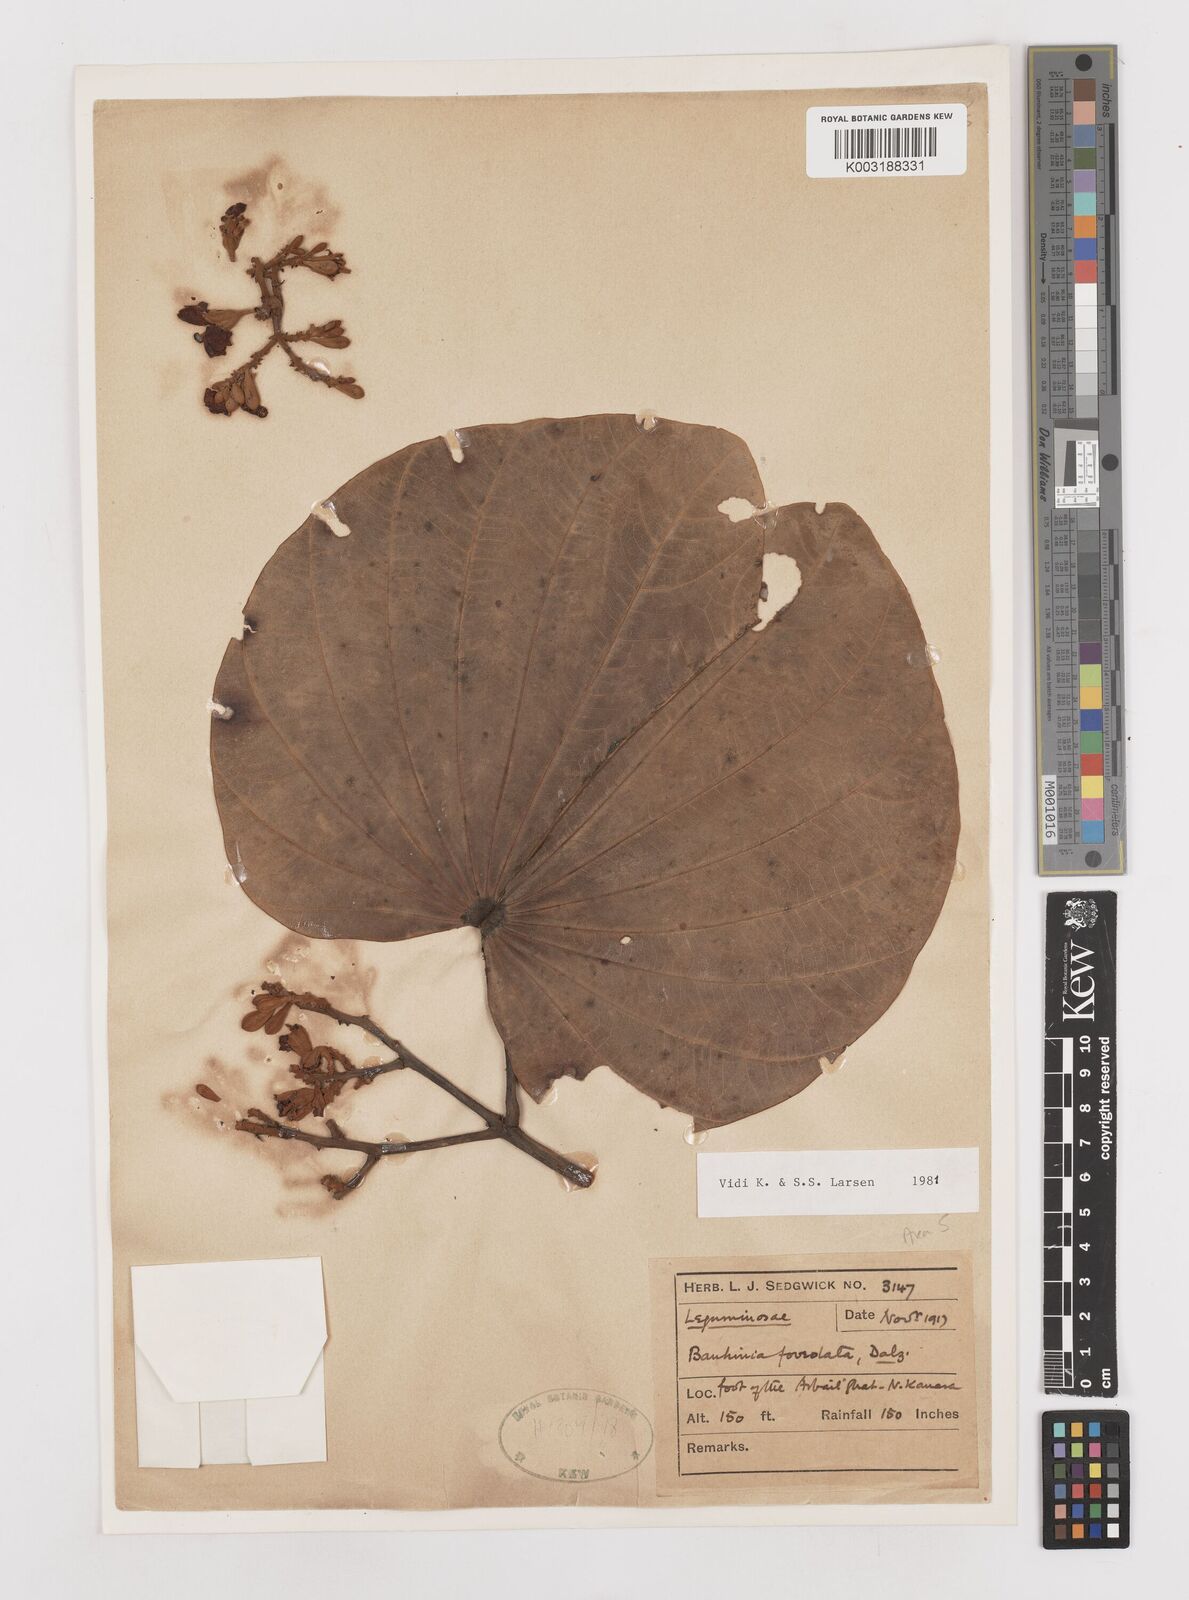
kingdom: Plantae
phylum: Tracheophyta
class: Magnoliopsida
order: Fabales
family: Fabaceae
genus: Piliostigma
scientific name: Piliostigma foveolatum
